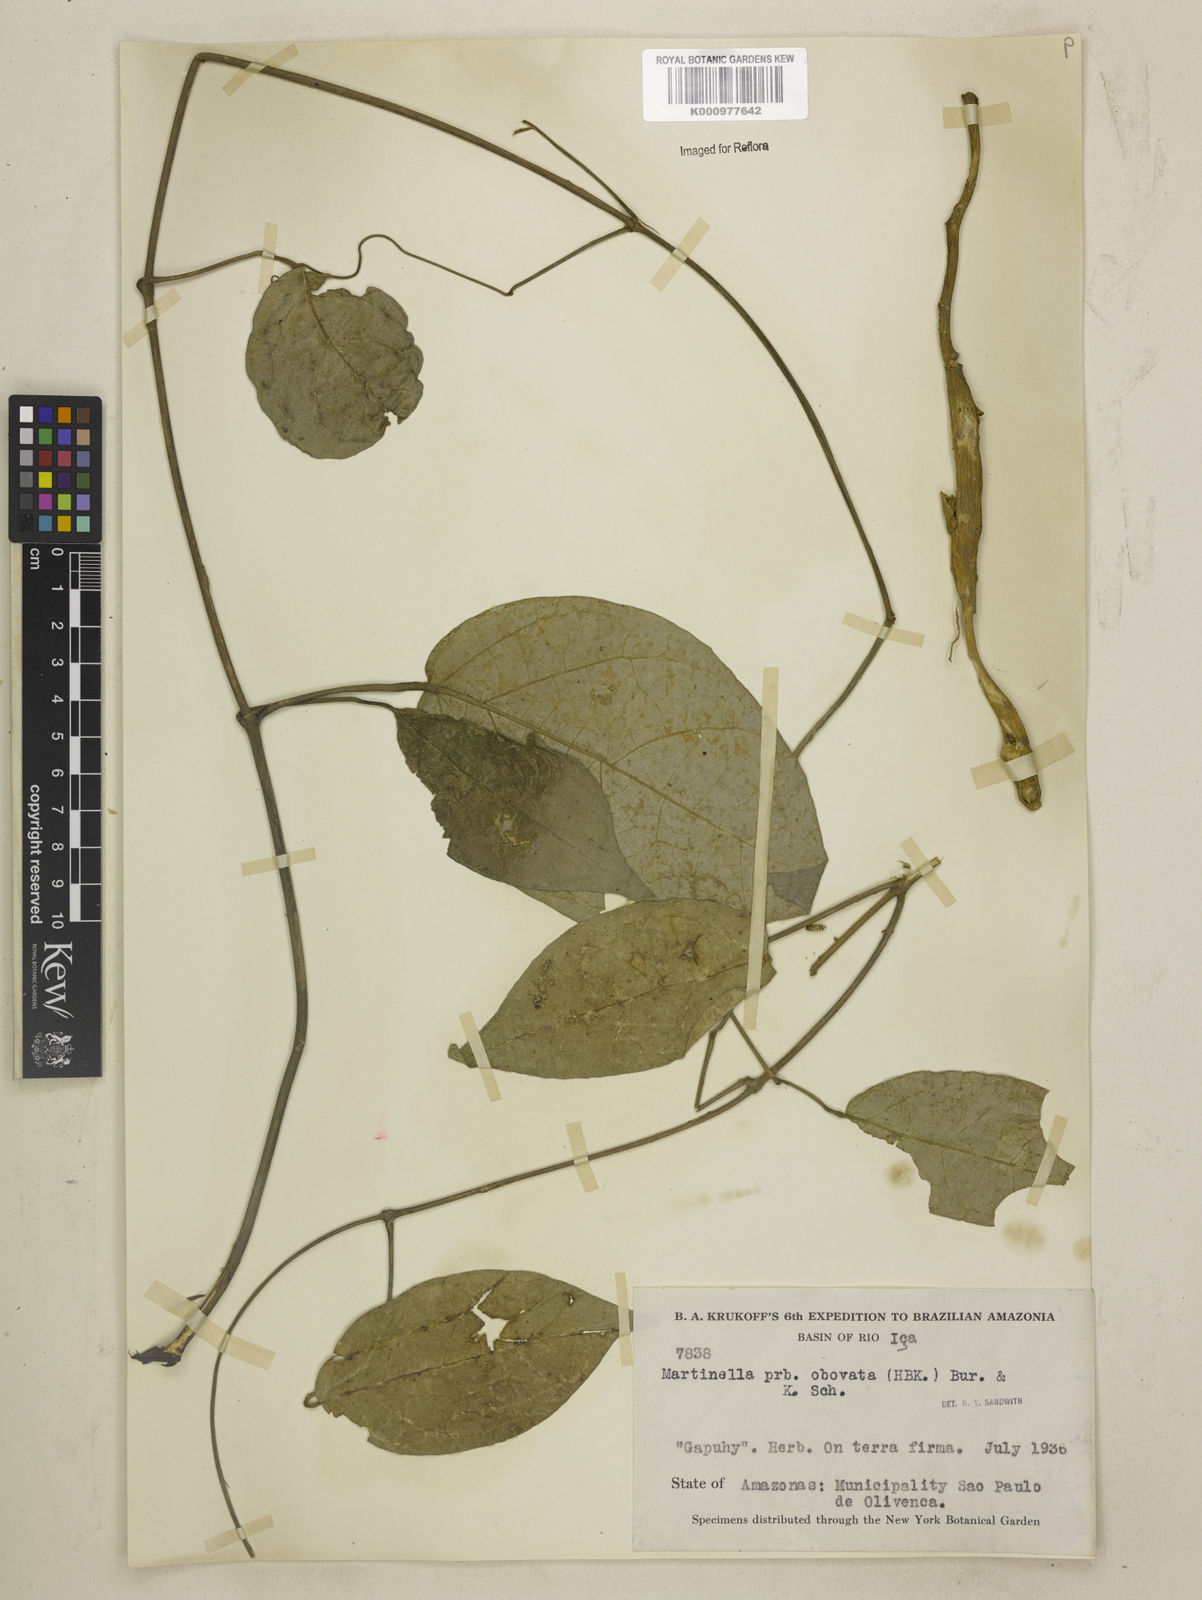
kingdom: Animalia
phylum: Arthropoda
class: Insecta
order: Coleoptera
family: Chrysomelidae
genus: Martinella
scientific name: Martinella obovata
